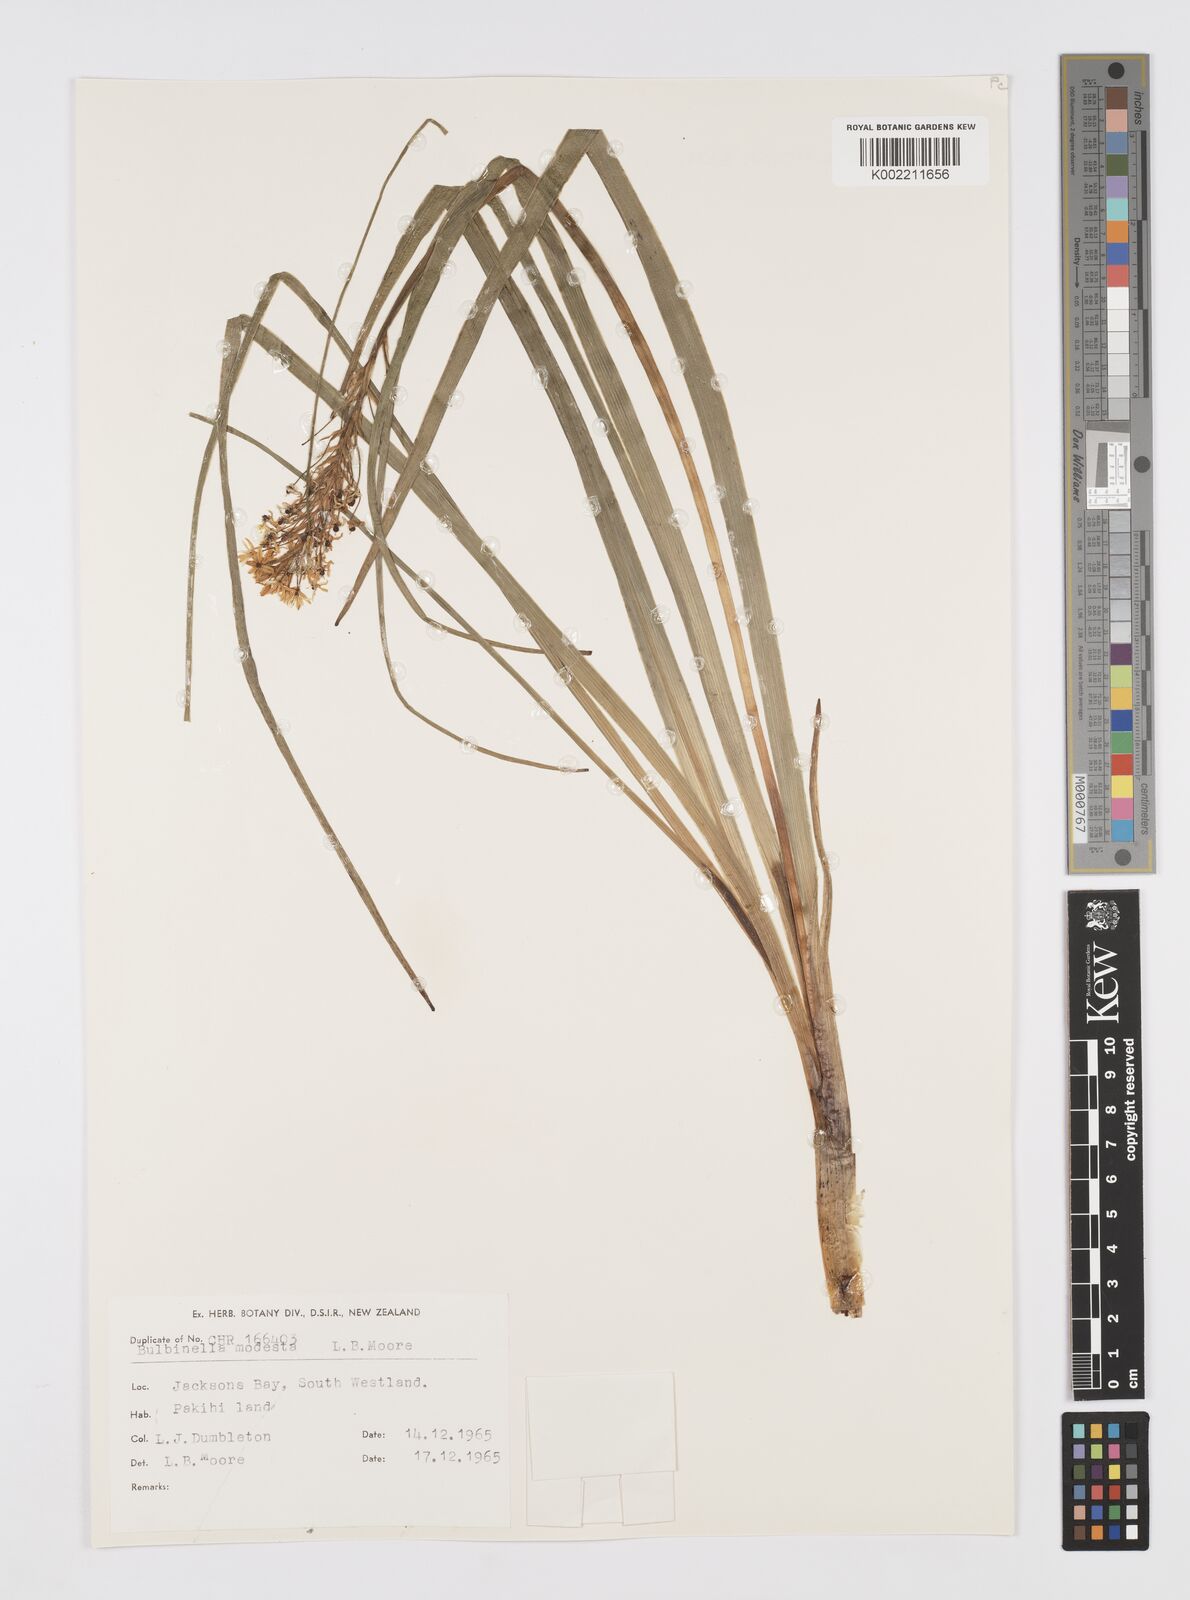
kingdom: Plantae
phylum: Tracheophyta
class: Liliopsida
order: Asparagales
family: Asphodelaceae
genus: Bulbinella
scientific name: Bulbinella modesta
